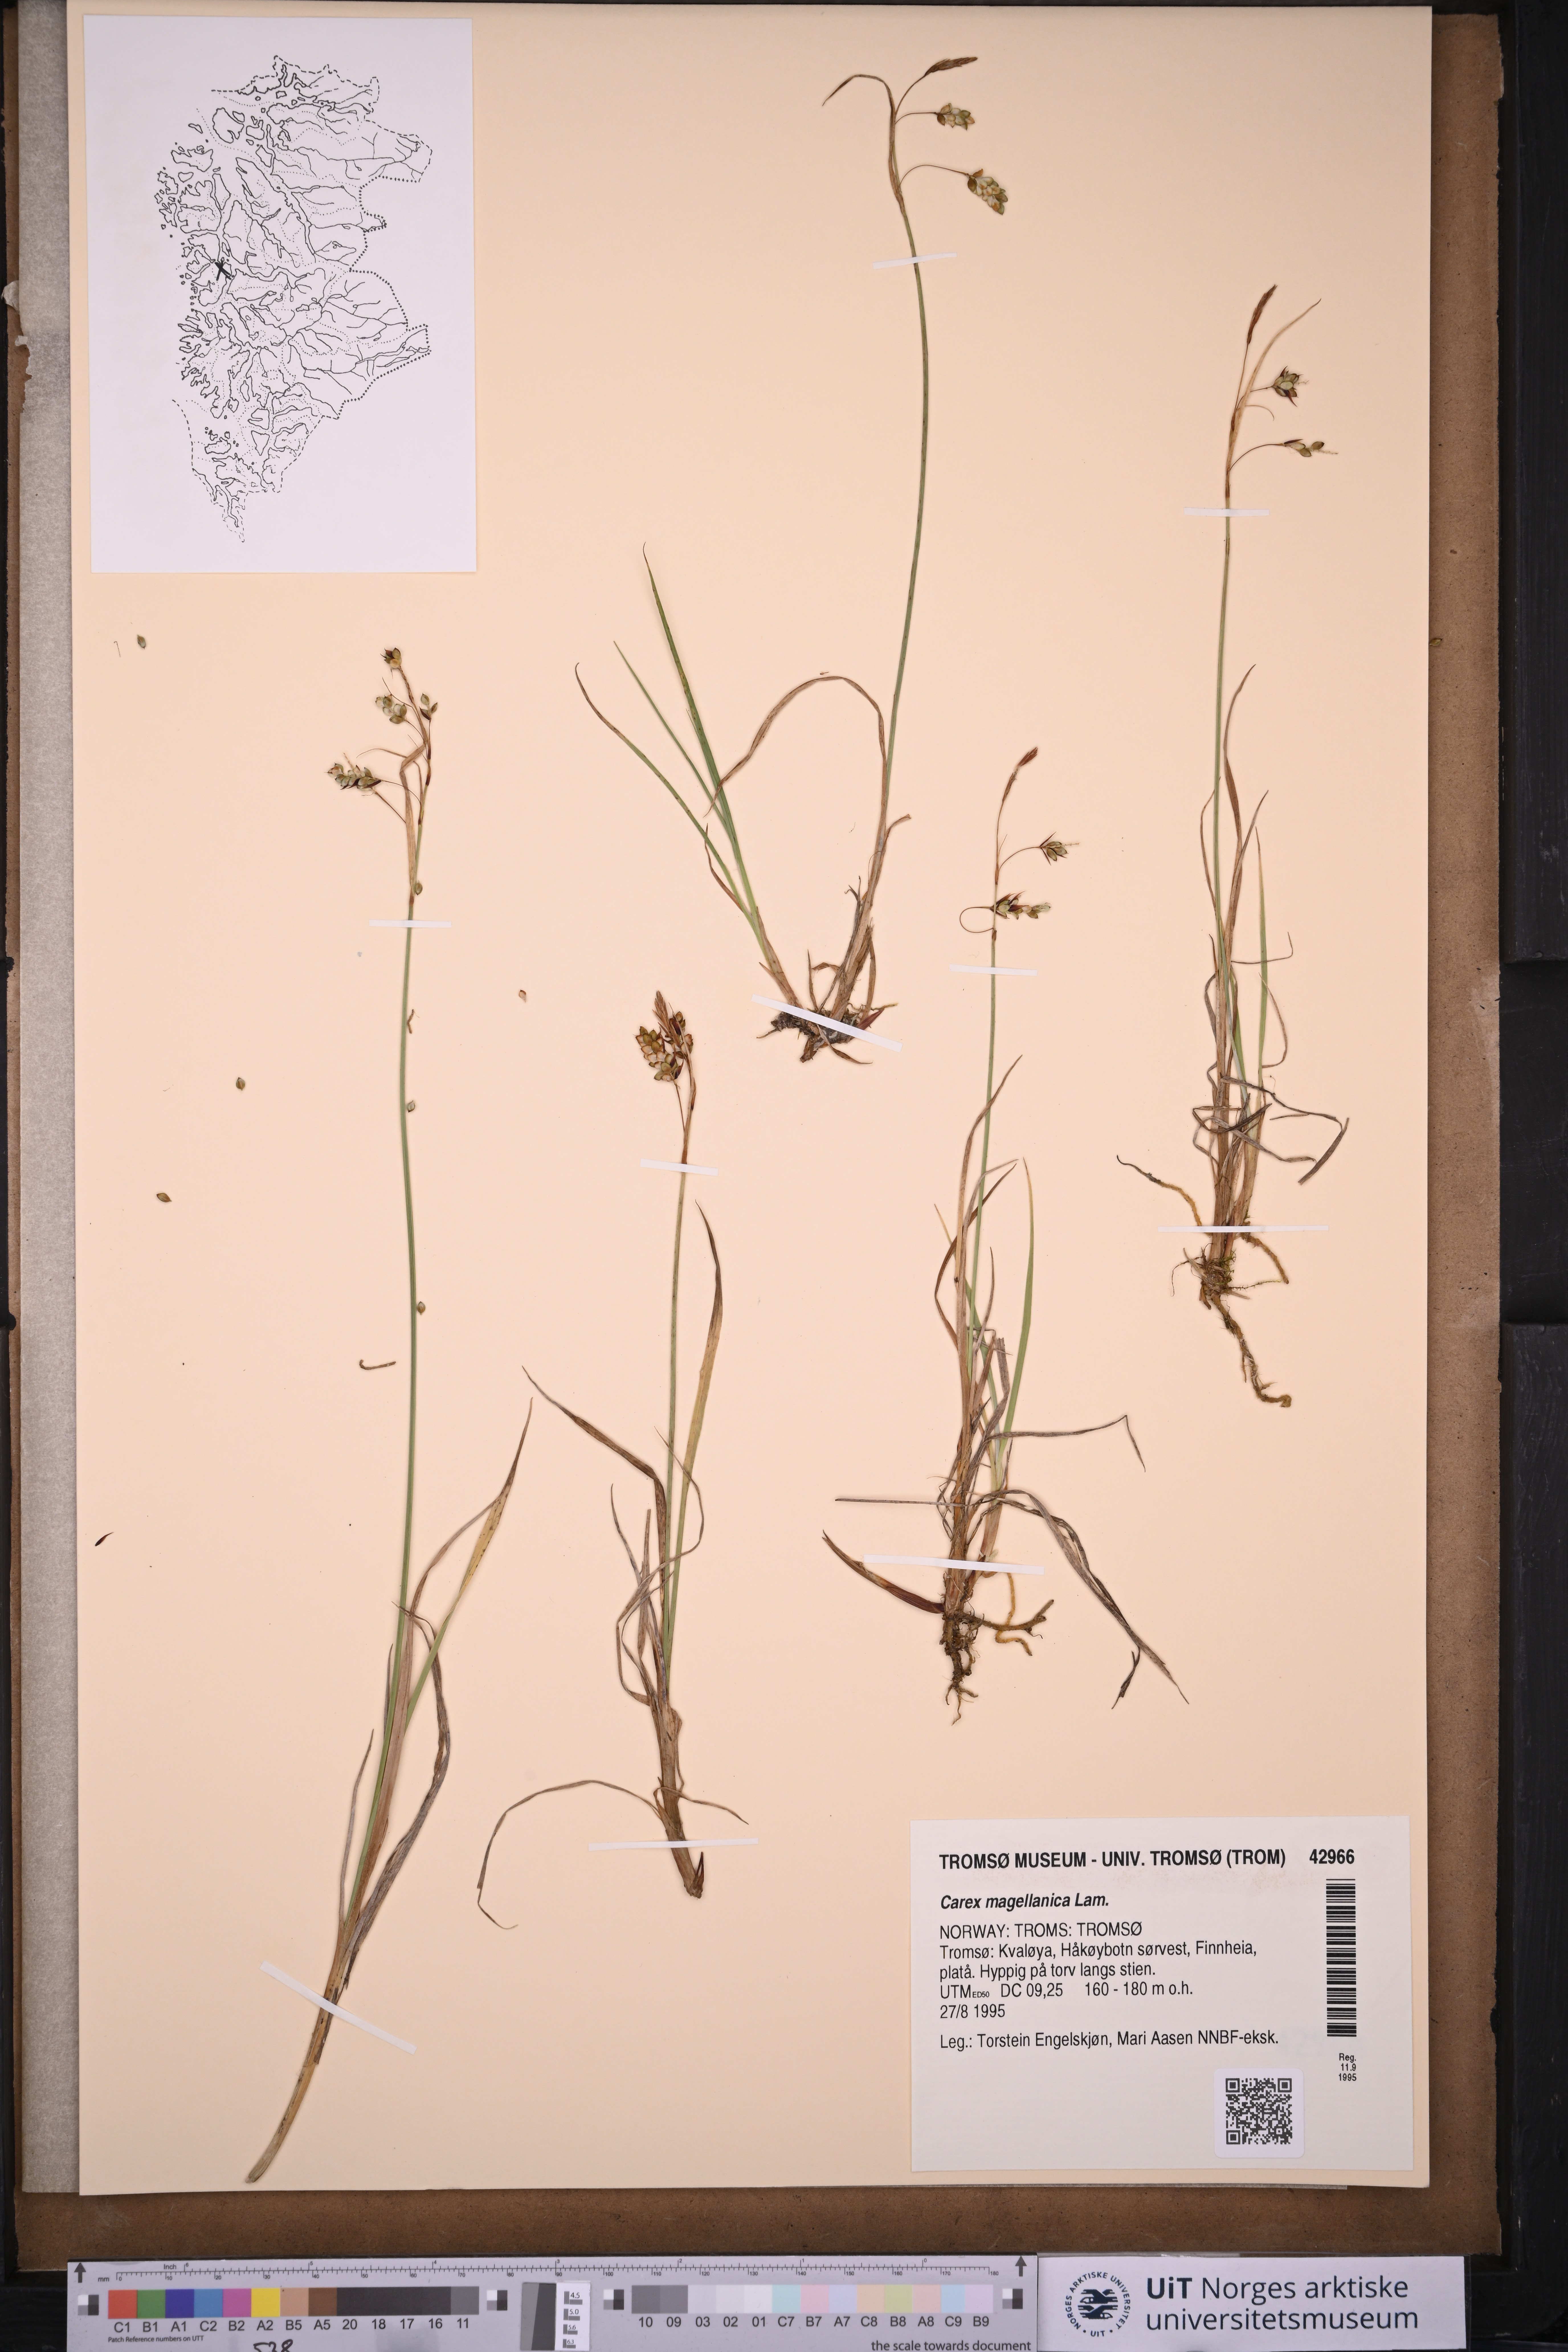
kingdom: Plantae
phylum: Tracheophyta
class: Liliopsida
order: Poales
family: Cyperaceae
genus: Carex
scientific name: Carex magellanica
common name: Bog sedge
